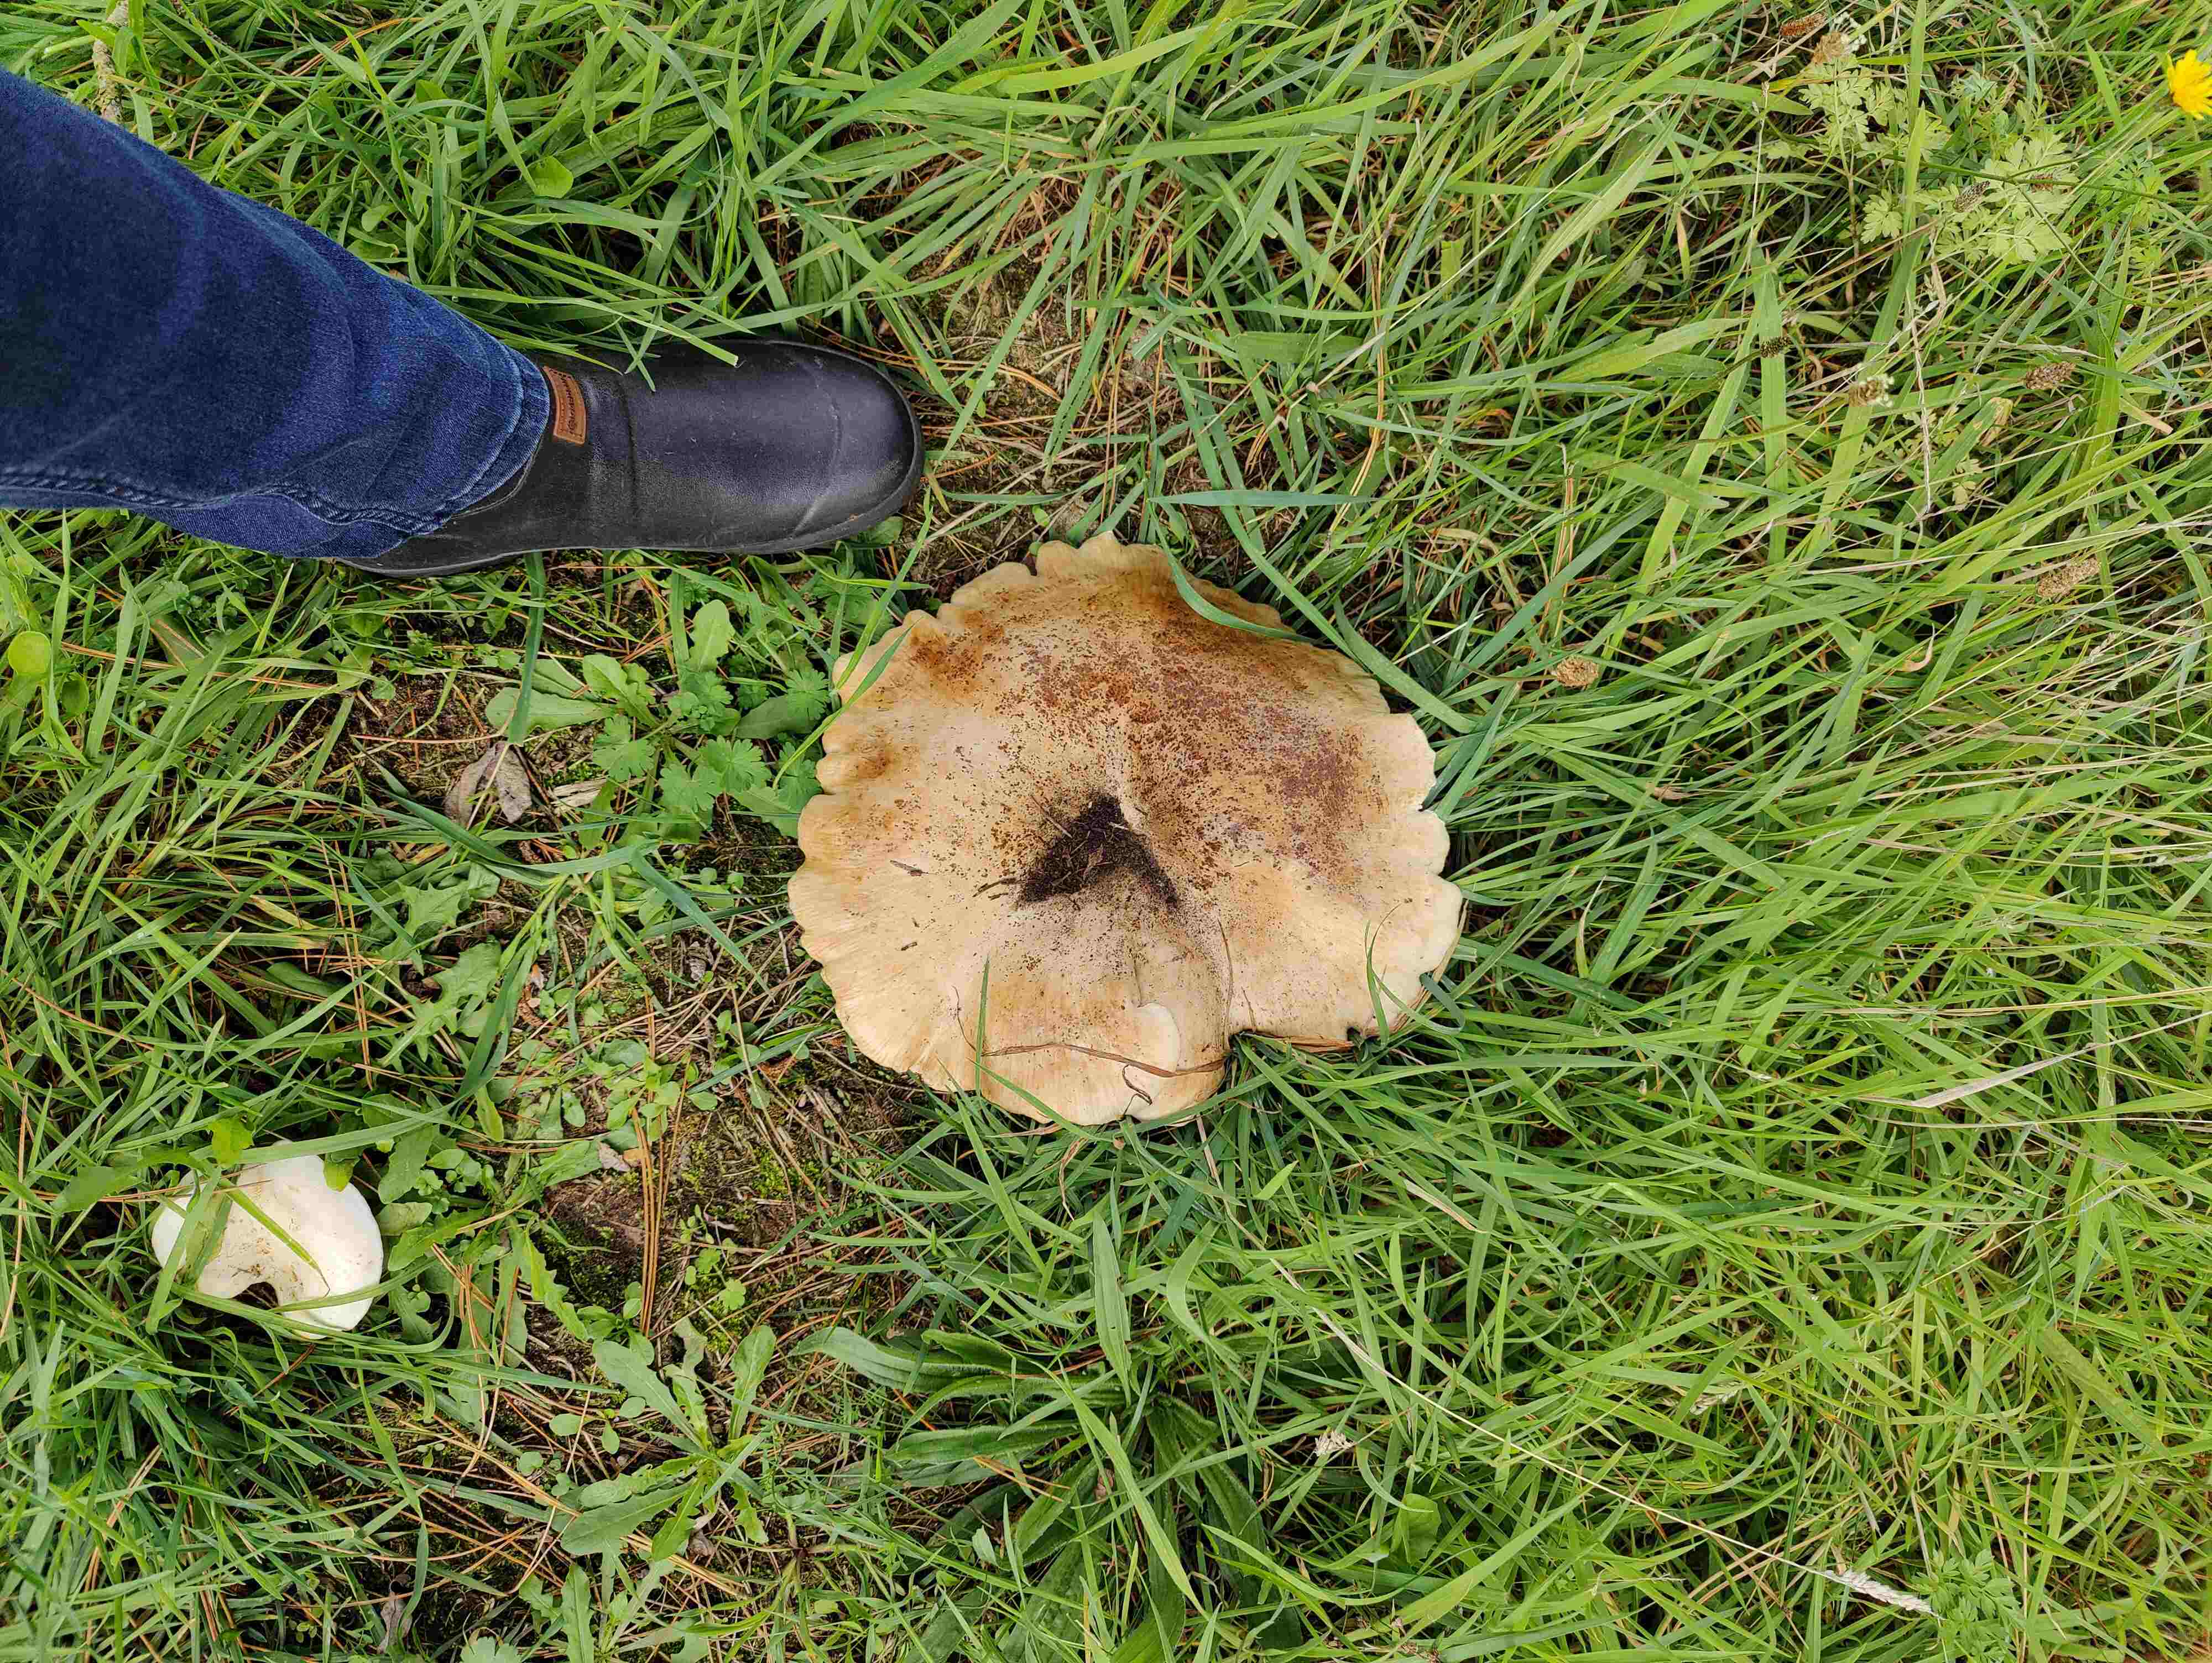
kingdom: Fungi
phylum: Basidiomycota
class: Agaricomycetes
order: Agaricales
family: Tricholomataceae
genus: Aspropaxillus
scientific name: Aspropaxillus giganteus
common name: kæmpe-tragtridderhat
